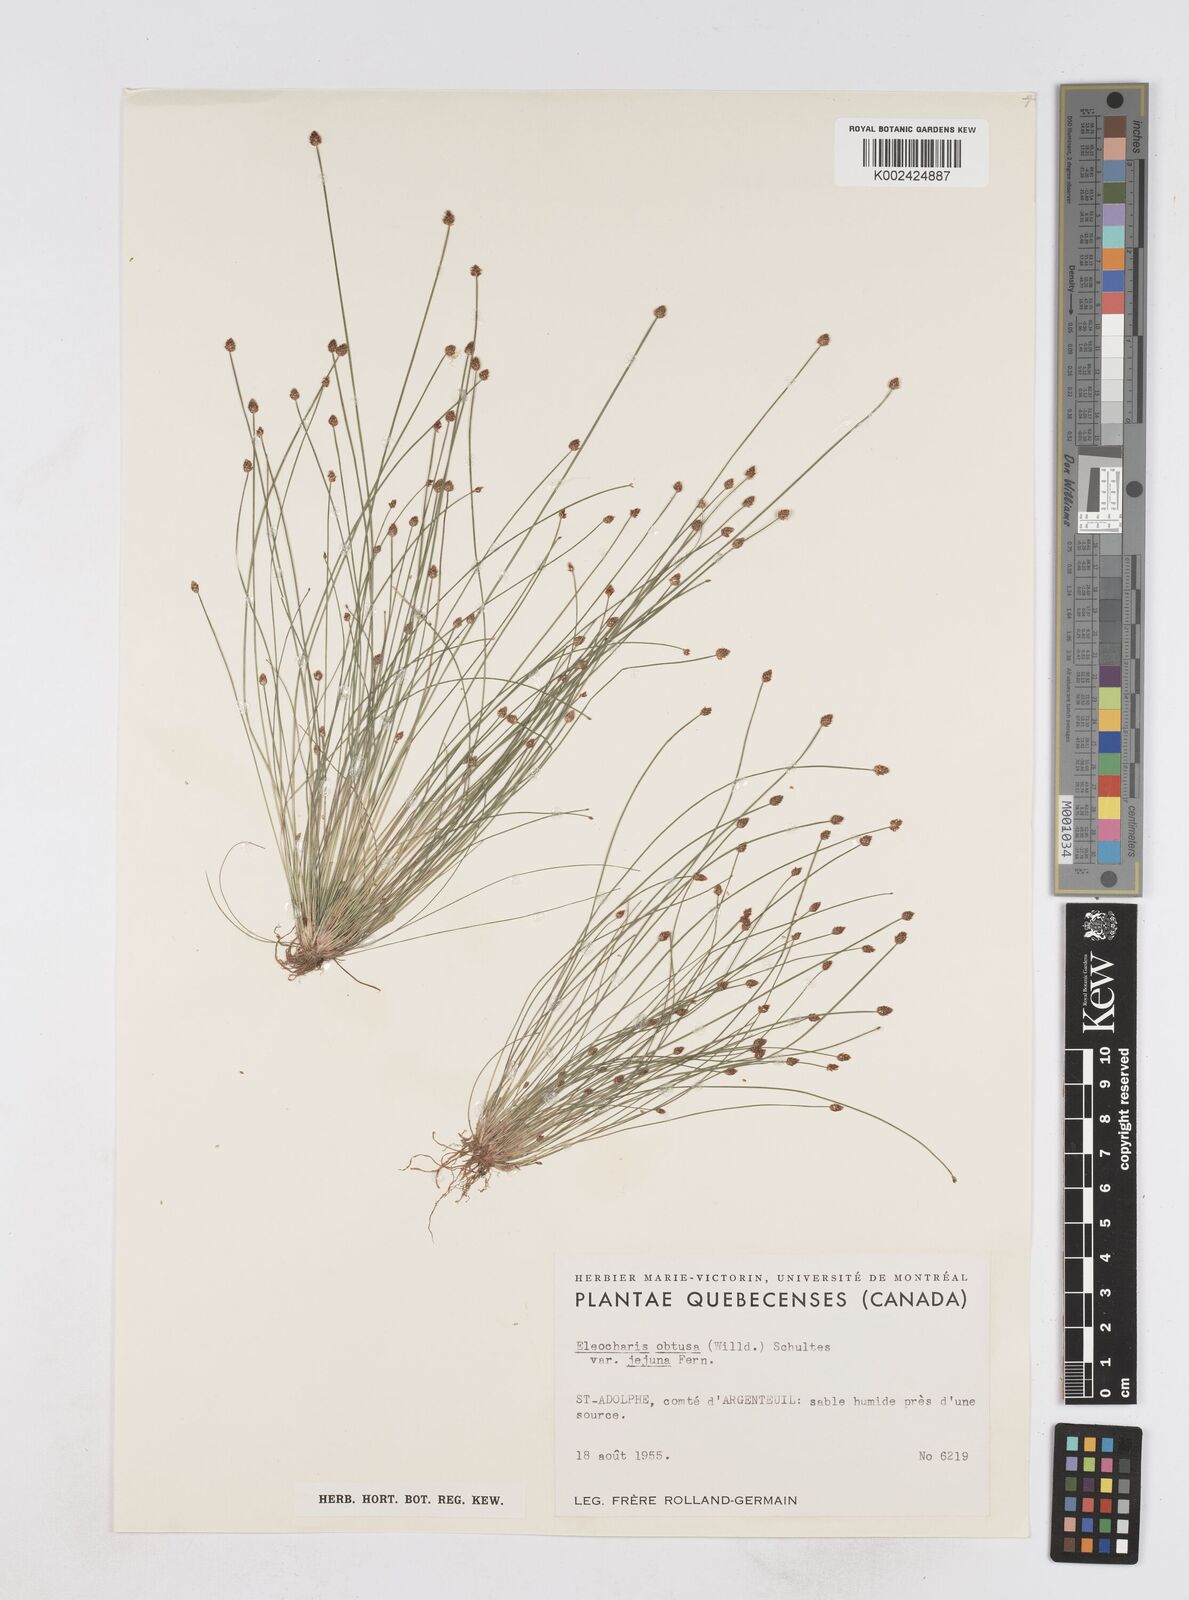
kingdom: Plantae
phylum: Tracheophyta
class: Liliopsida
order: Poales
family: Cyperaceae
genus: Eleocharis
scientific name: Eleocharis obtusa
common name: Blunt spikerush
